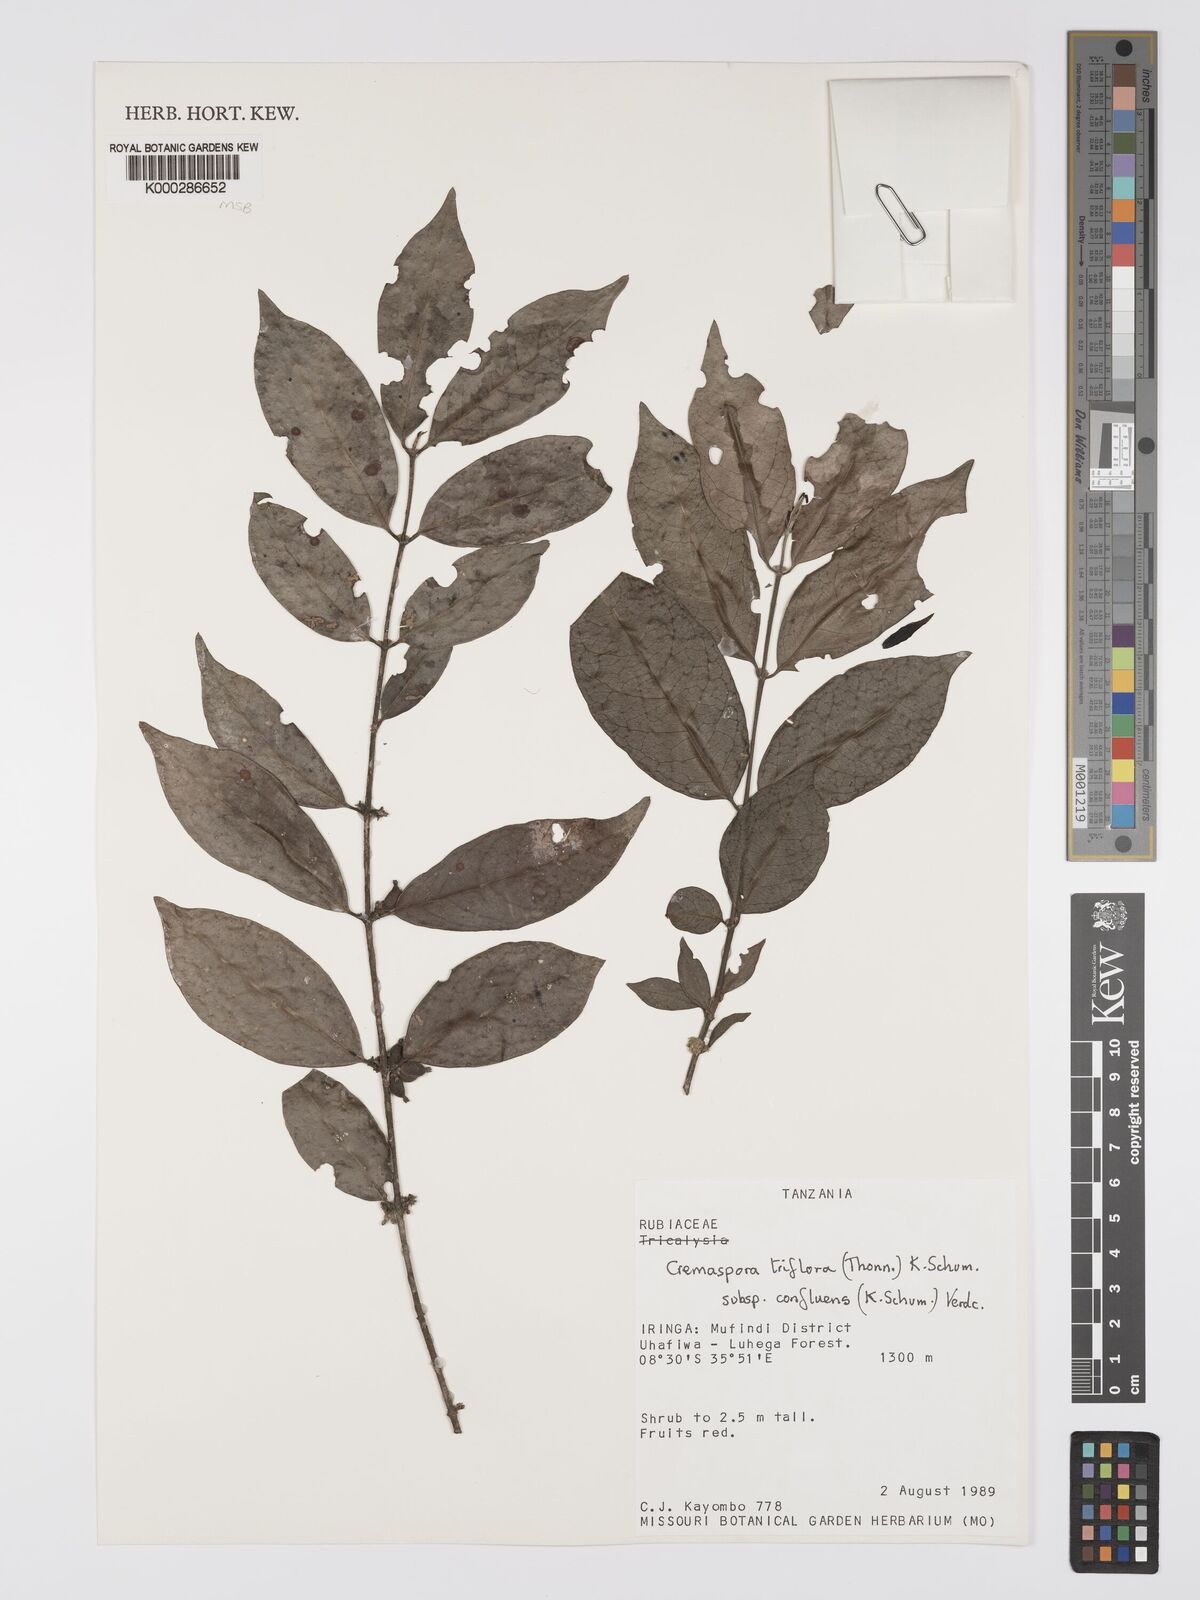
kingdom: Plantae
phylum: Tracheophyta
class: Magnoliopsida
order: Gentianales
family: Rubiaceae
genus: Cremaspora
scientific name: Cremaspora triflora
